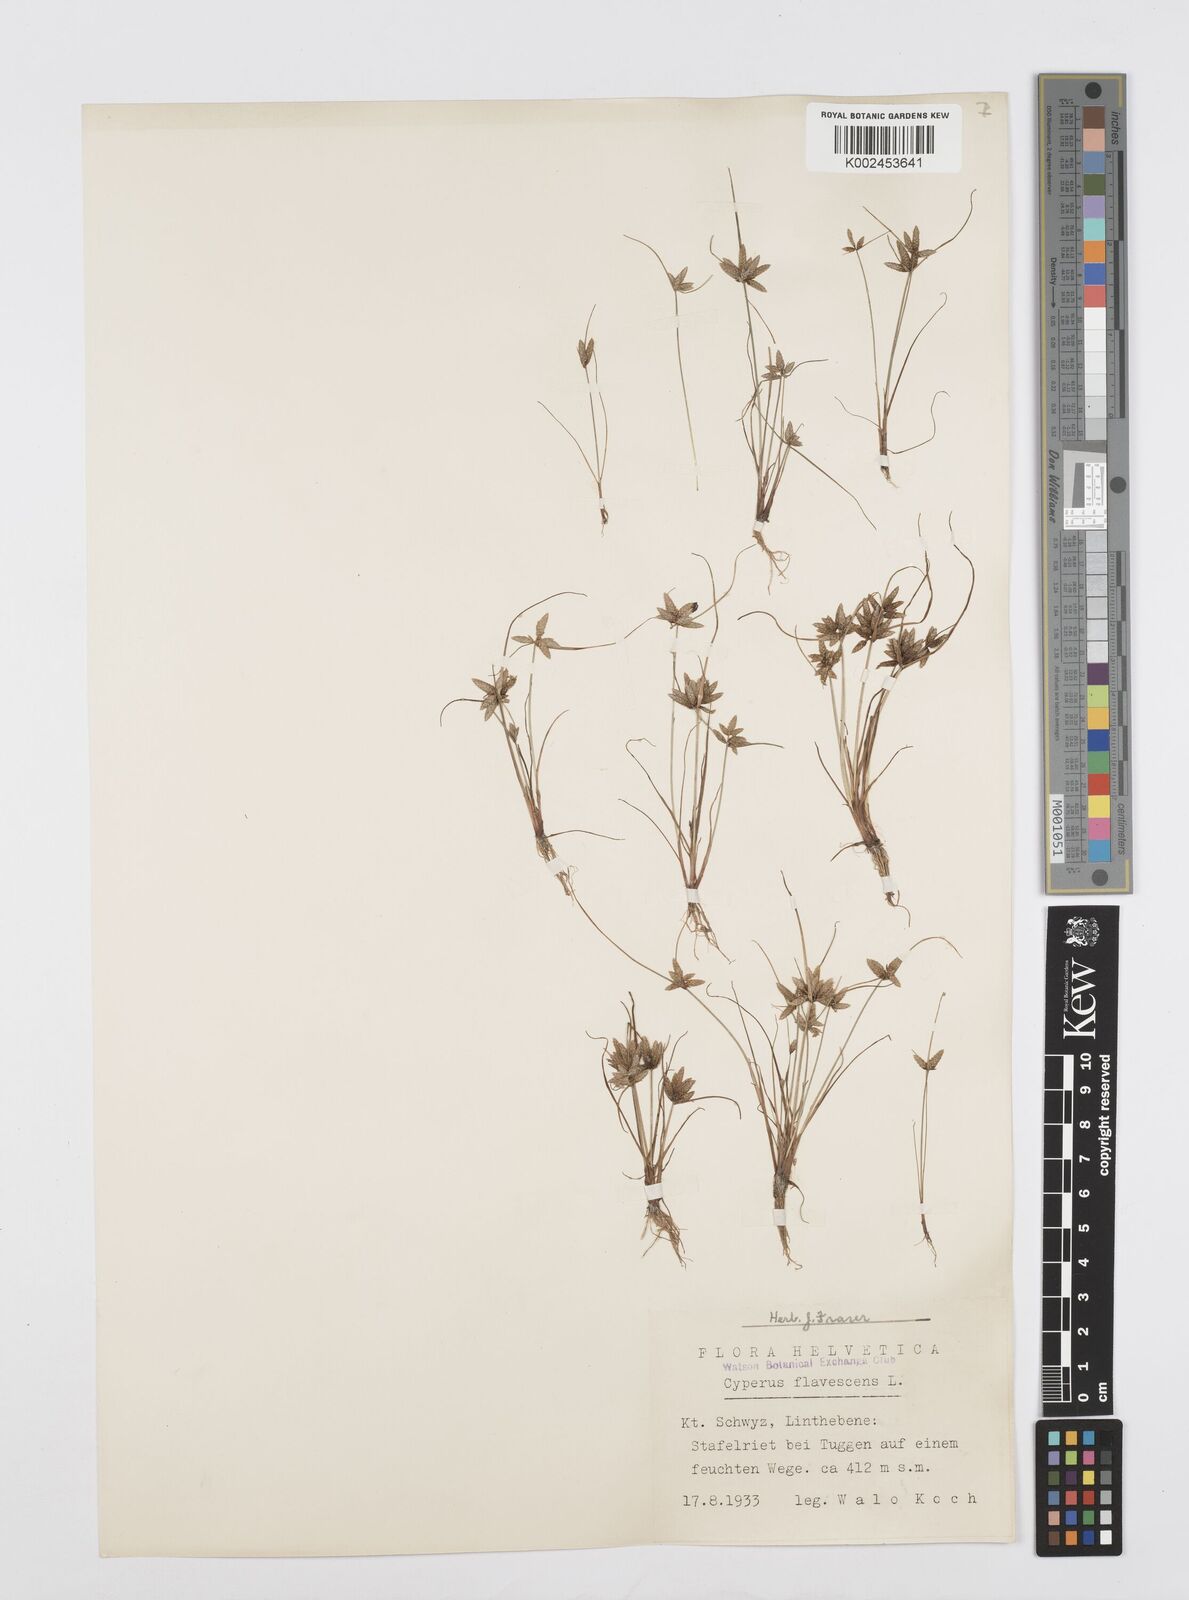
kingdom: Plantae
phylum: Tracheophyta
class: Liliopsida
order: Poales
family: Cyperaceae
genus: Cyperus
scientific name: Cyperus flavescens
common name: Yellow galingale
